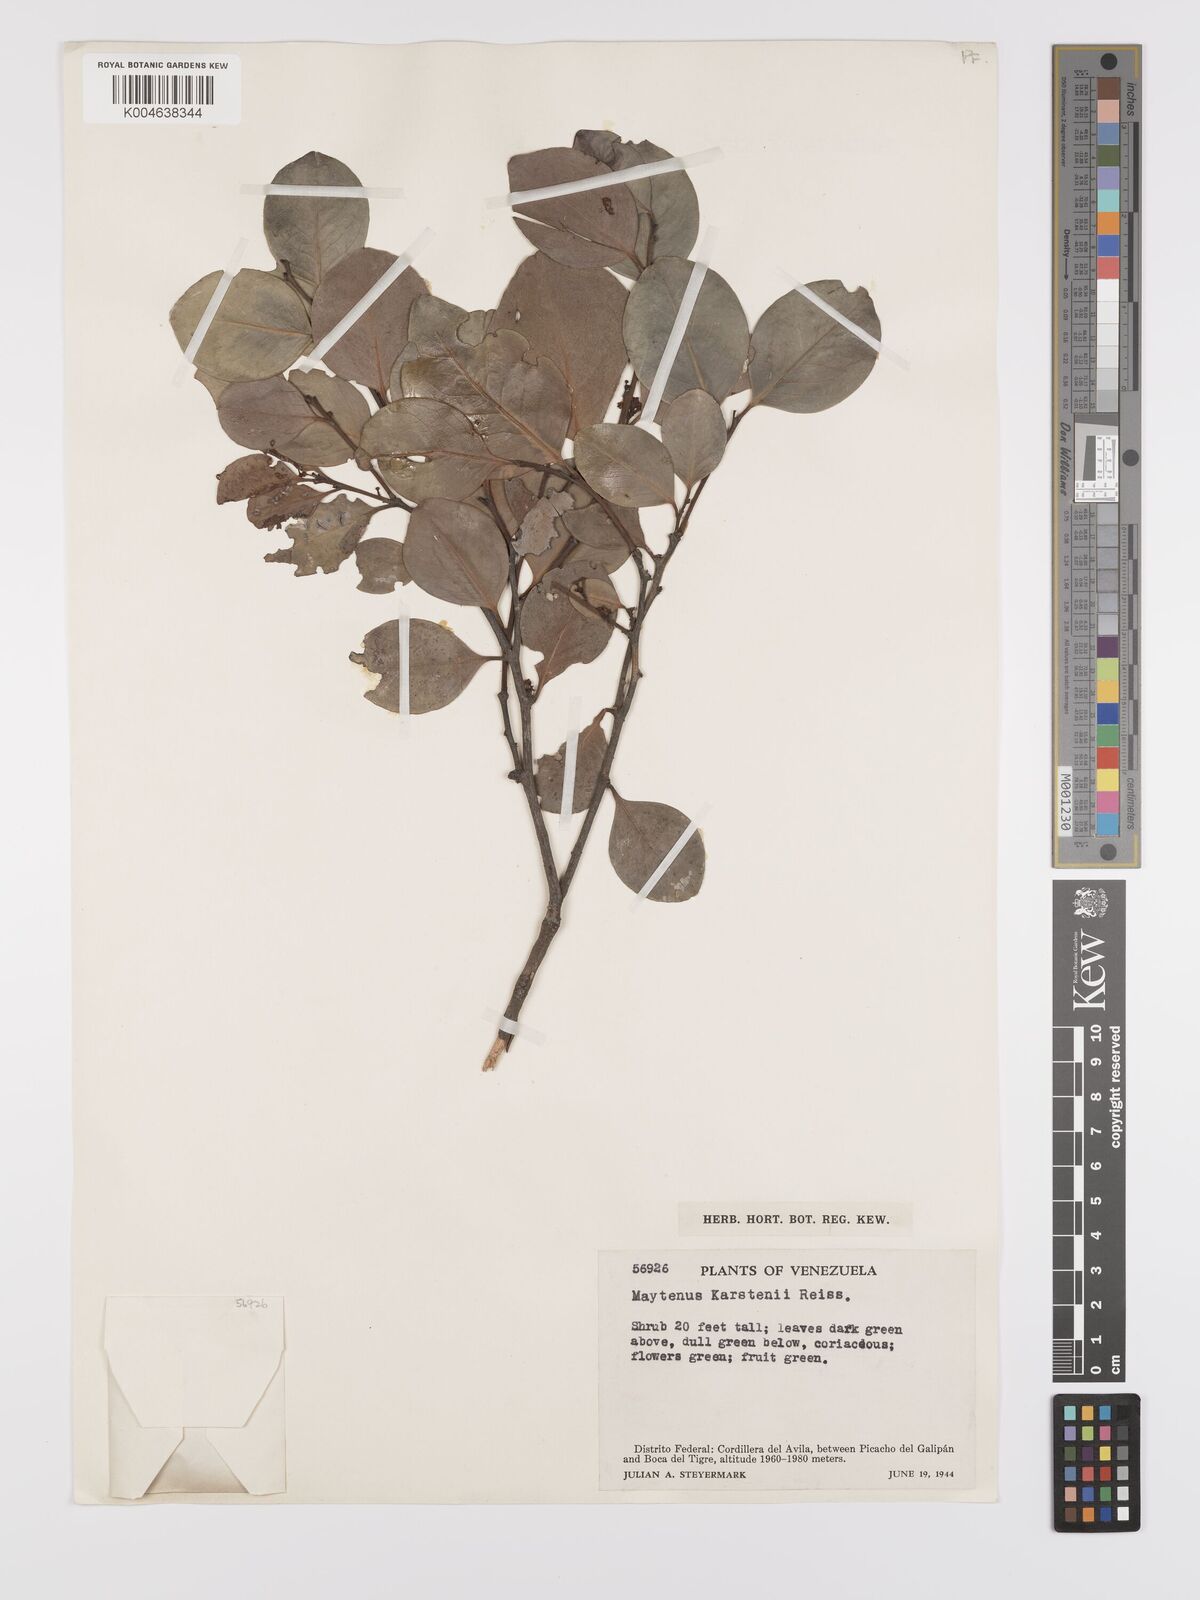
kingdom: Plantae
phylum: Tracheophyta
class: Magnoliopsida
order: Celastrales
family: Celastraceae
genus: Monteverdia
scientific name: Monteverdia karstenii
